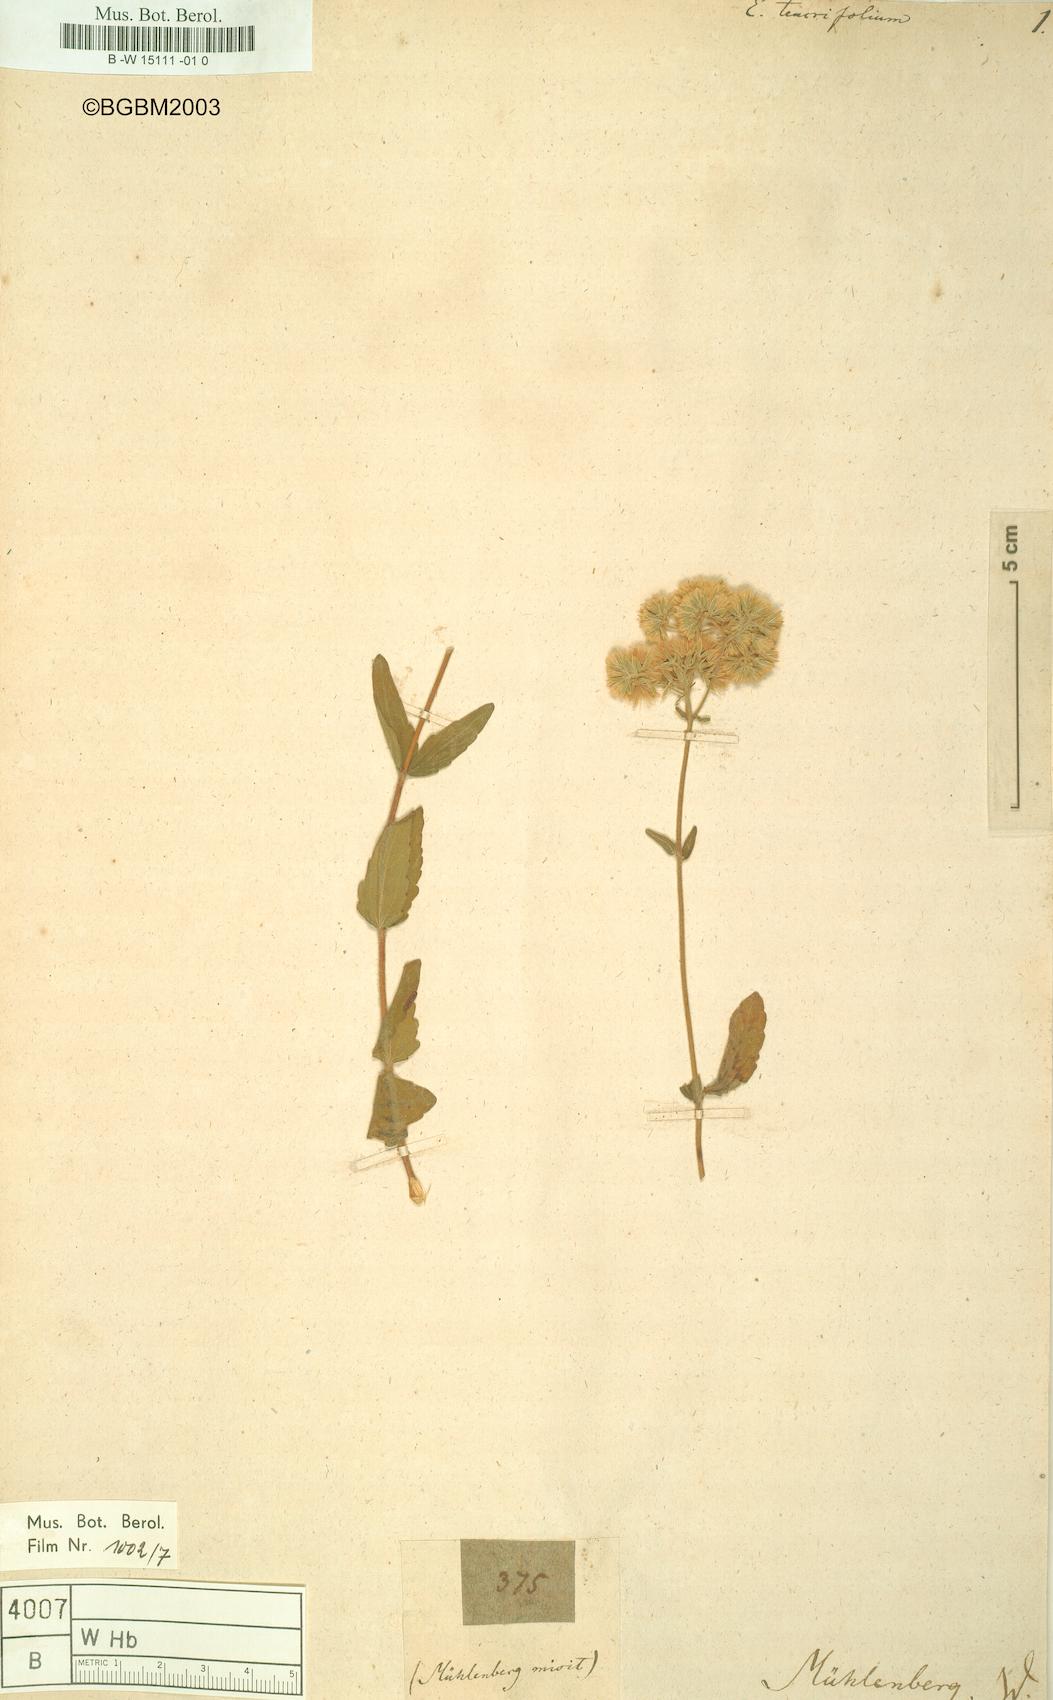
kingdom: Plantae
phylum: Tracheophyta
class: Magnoliopsida
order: Asterales
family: Asteraceae
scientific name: Asteraceae
